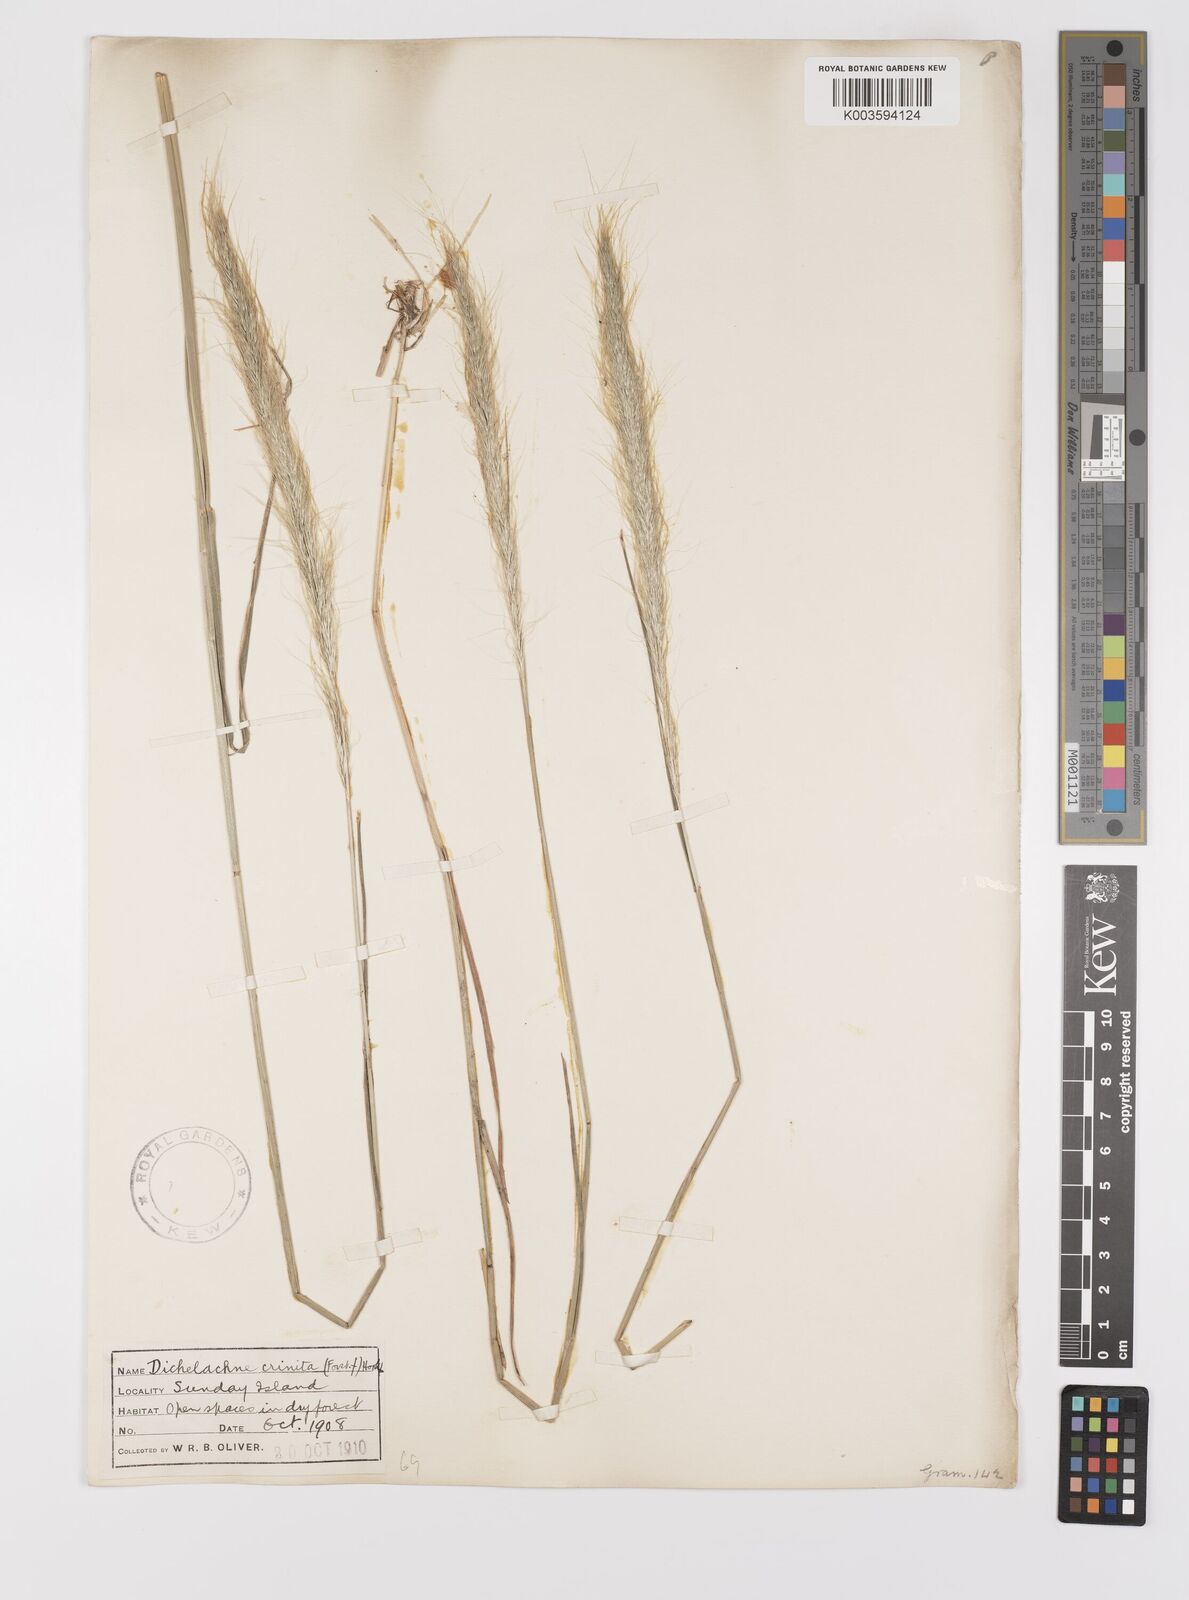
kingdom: Plantae
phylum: Tracheophyta
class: Liliopsida
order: Poales
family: Poaceae
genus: Dichelachne
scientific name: Dichelachne crinita
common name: Clovenfoot plumegrass
